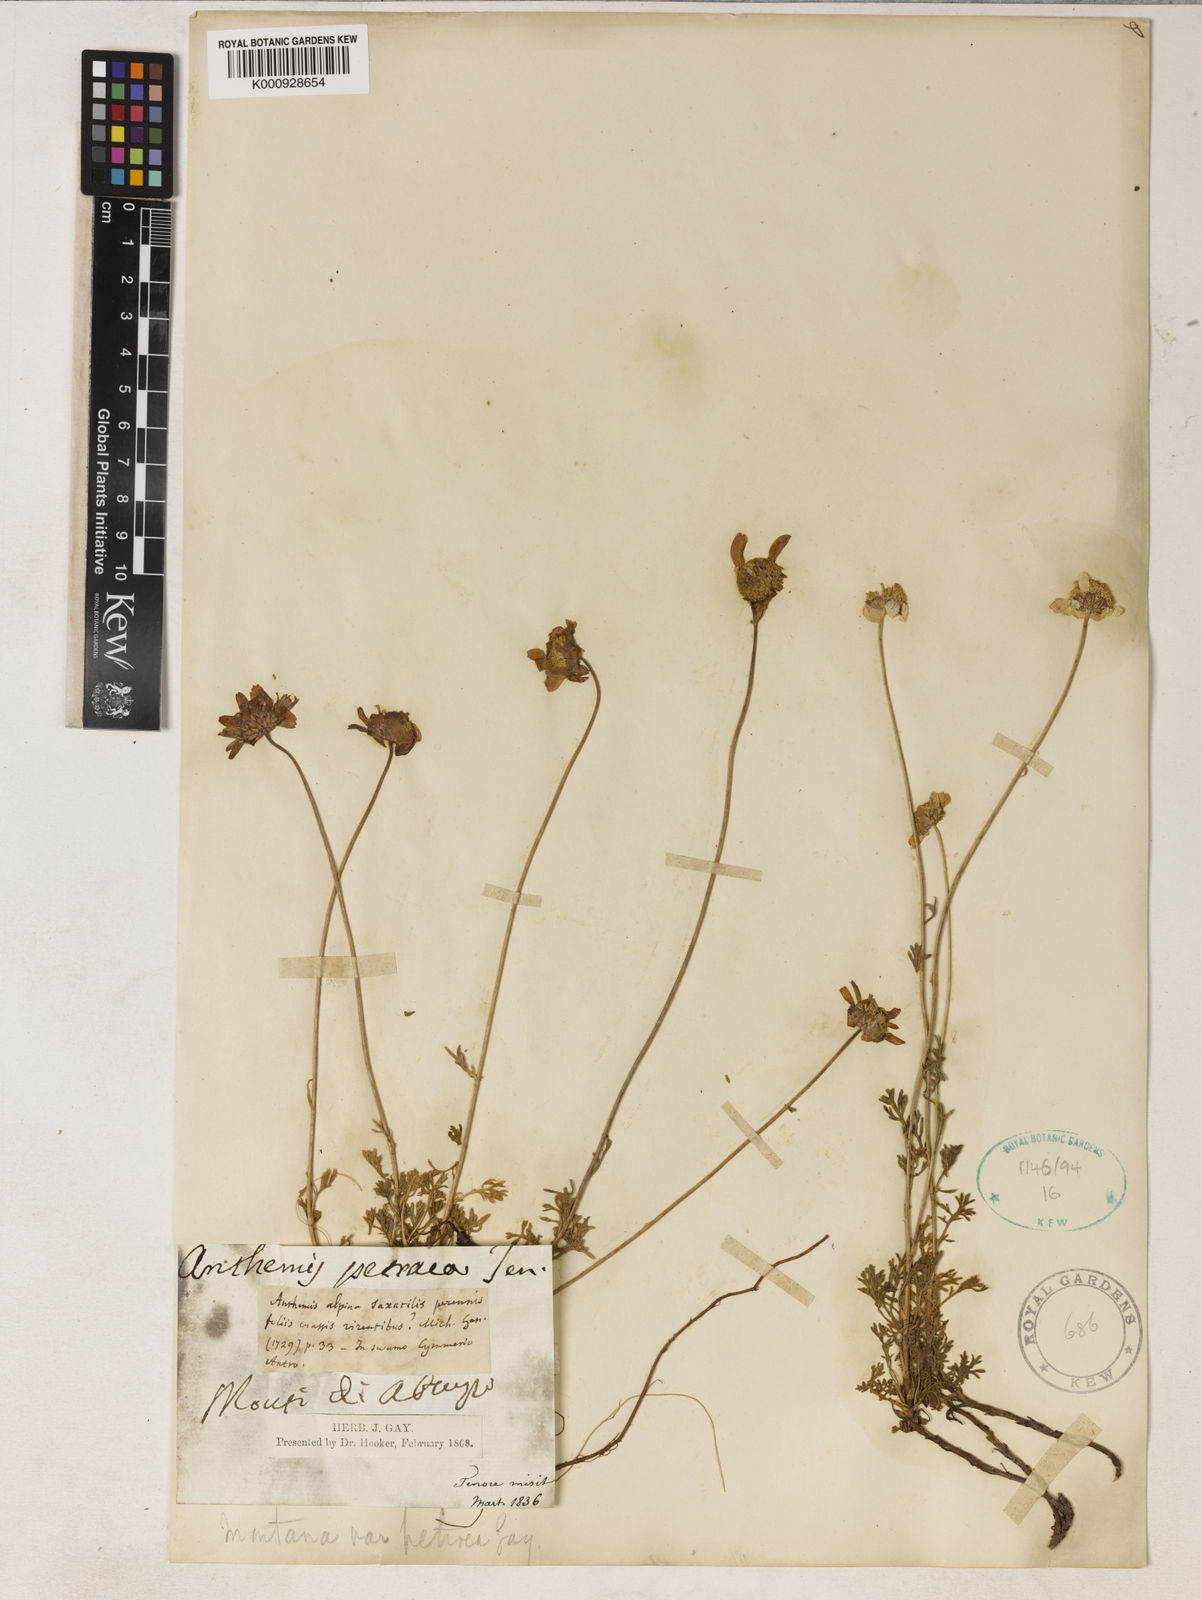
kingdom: Plantae
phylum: Tracheophyta
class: Magnoliopsida
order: Asterales
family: Asteraceae
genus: Anthemis
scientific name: Anthemis cretica
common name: Mountain dog-daisy
